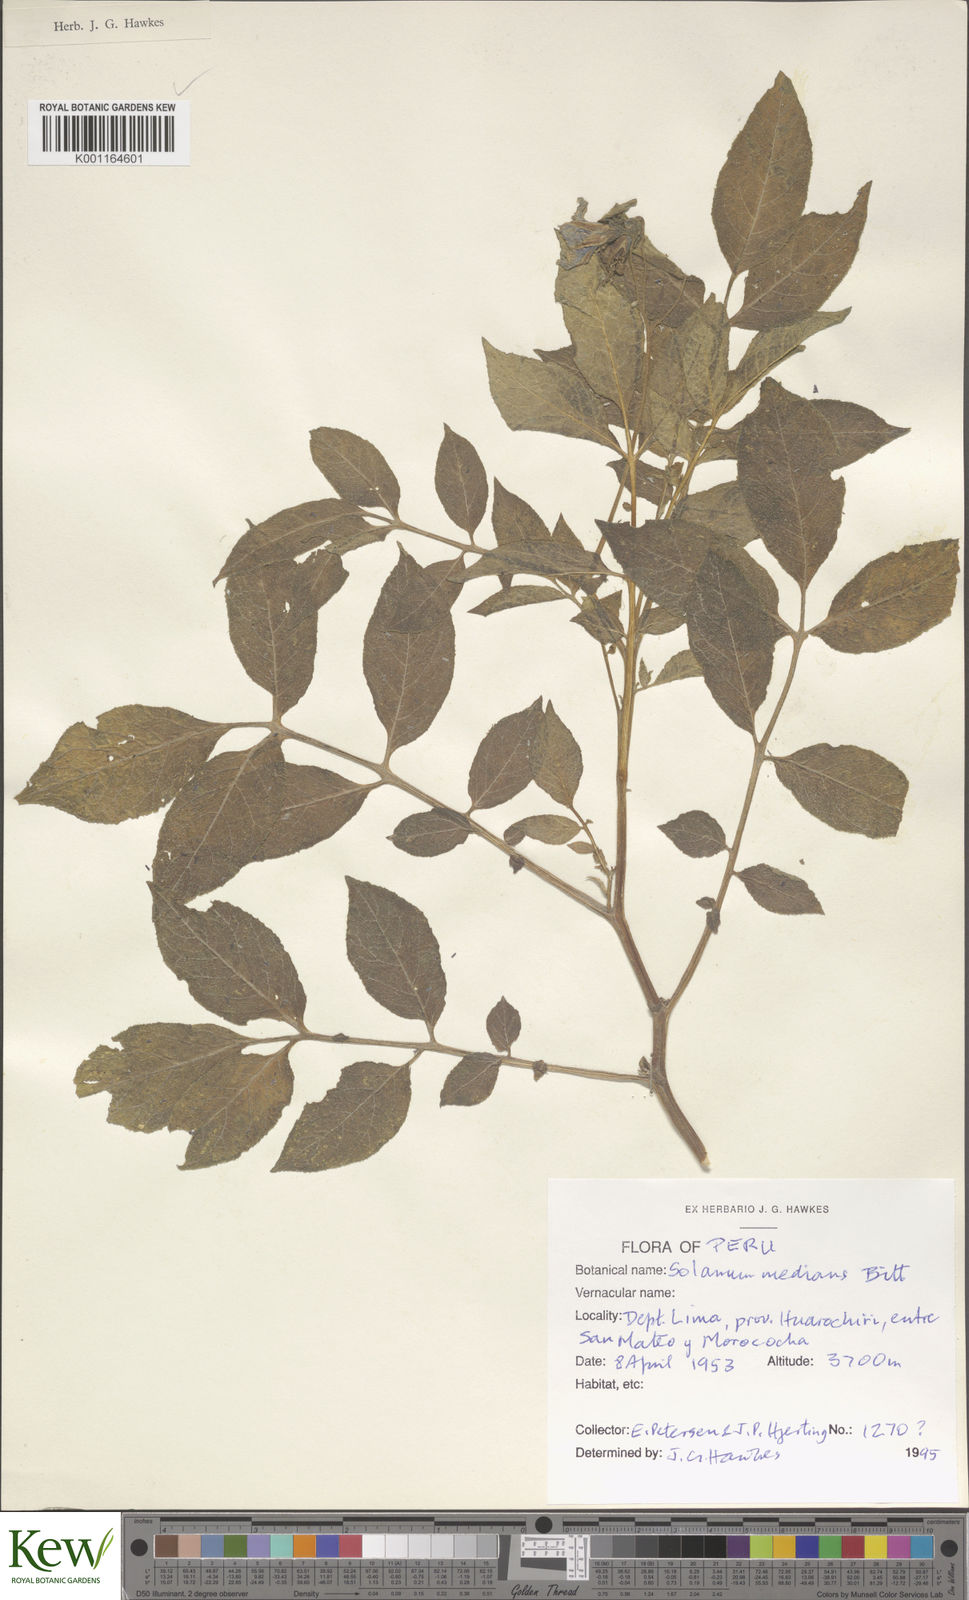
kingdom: Plantae
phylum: Tracheophyta
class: Magnoliopsida
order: Solanales
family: Solanaceae
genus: Solanum
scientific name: Solanum medians
